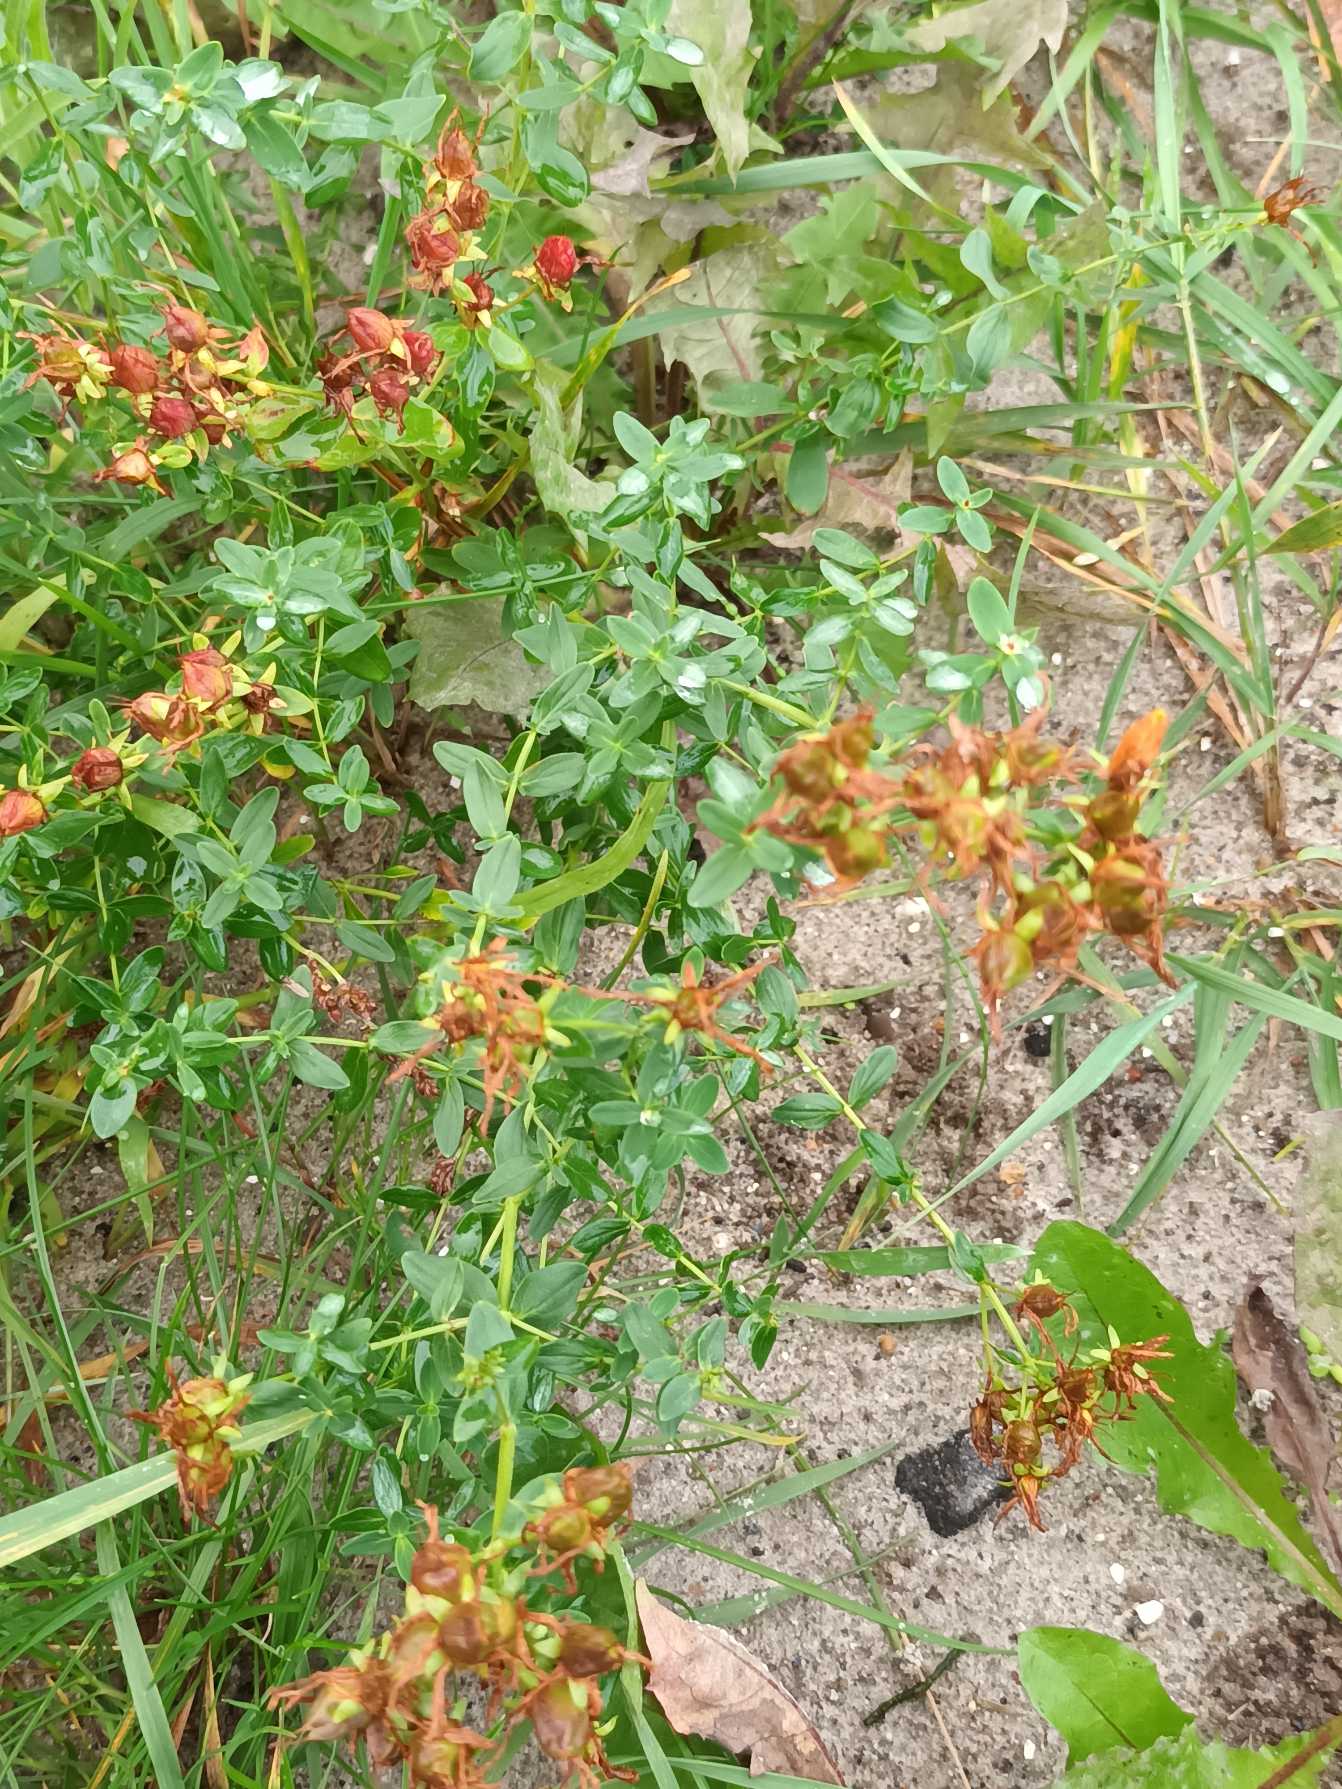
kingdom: Plantae
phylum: Tracheophyta
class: Magnoliopsida
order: Malpighiales
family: Hypericaceae
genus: Hypericum
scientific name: Hypericum perforatum
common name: Prikbladet perikon
